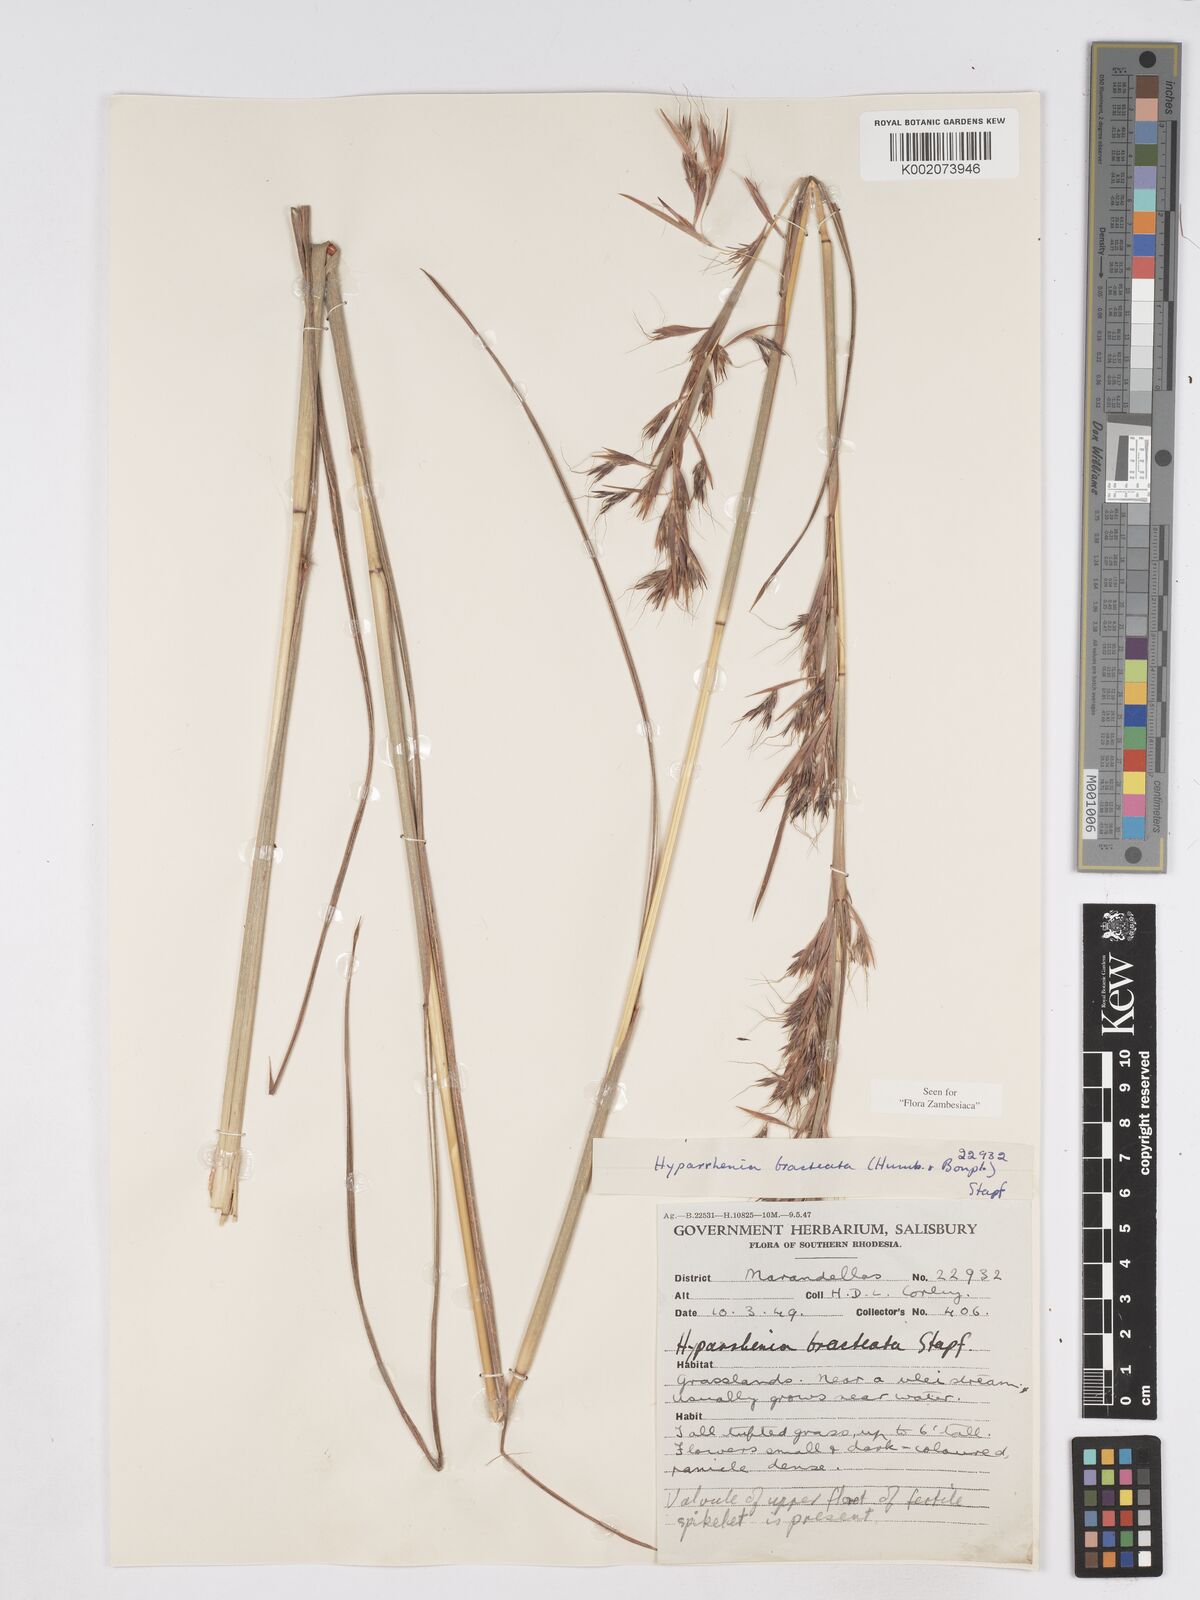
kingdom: Plantae
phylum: Tracheophyta
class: Liliopsida
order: Poales
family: Poaceae
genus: Hyparrhenia
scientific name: Hyparrhenia bracteata
